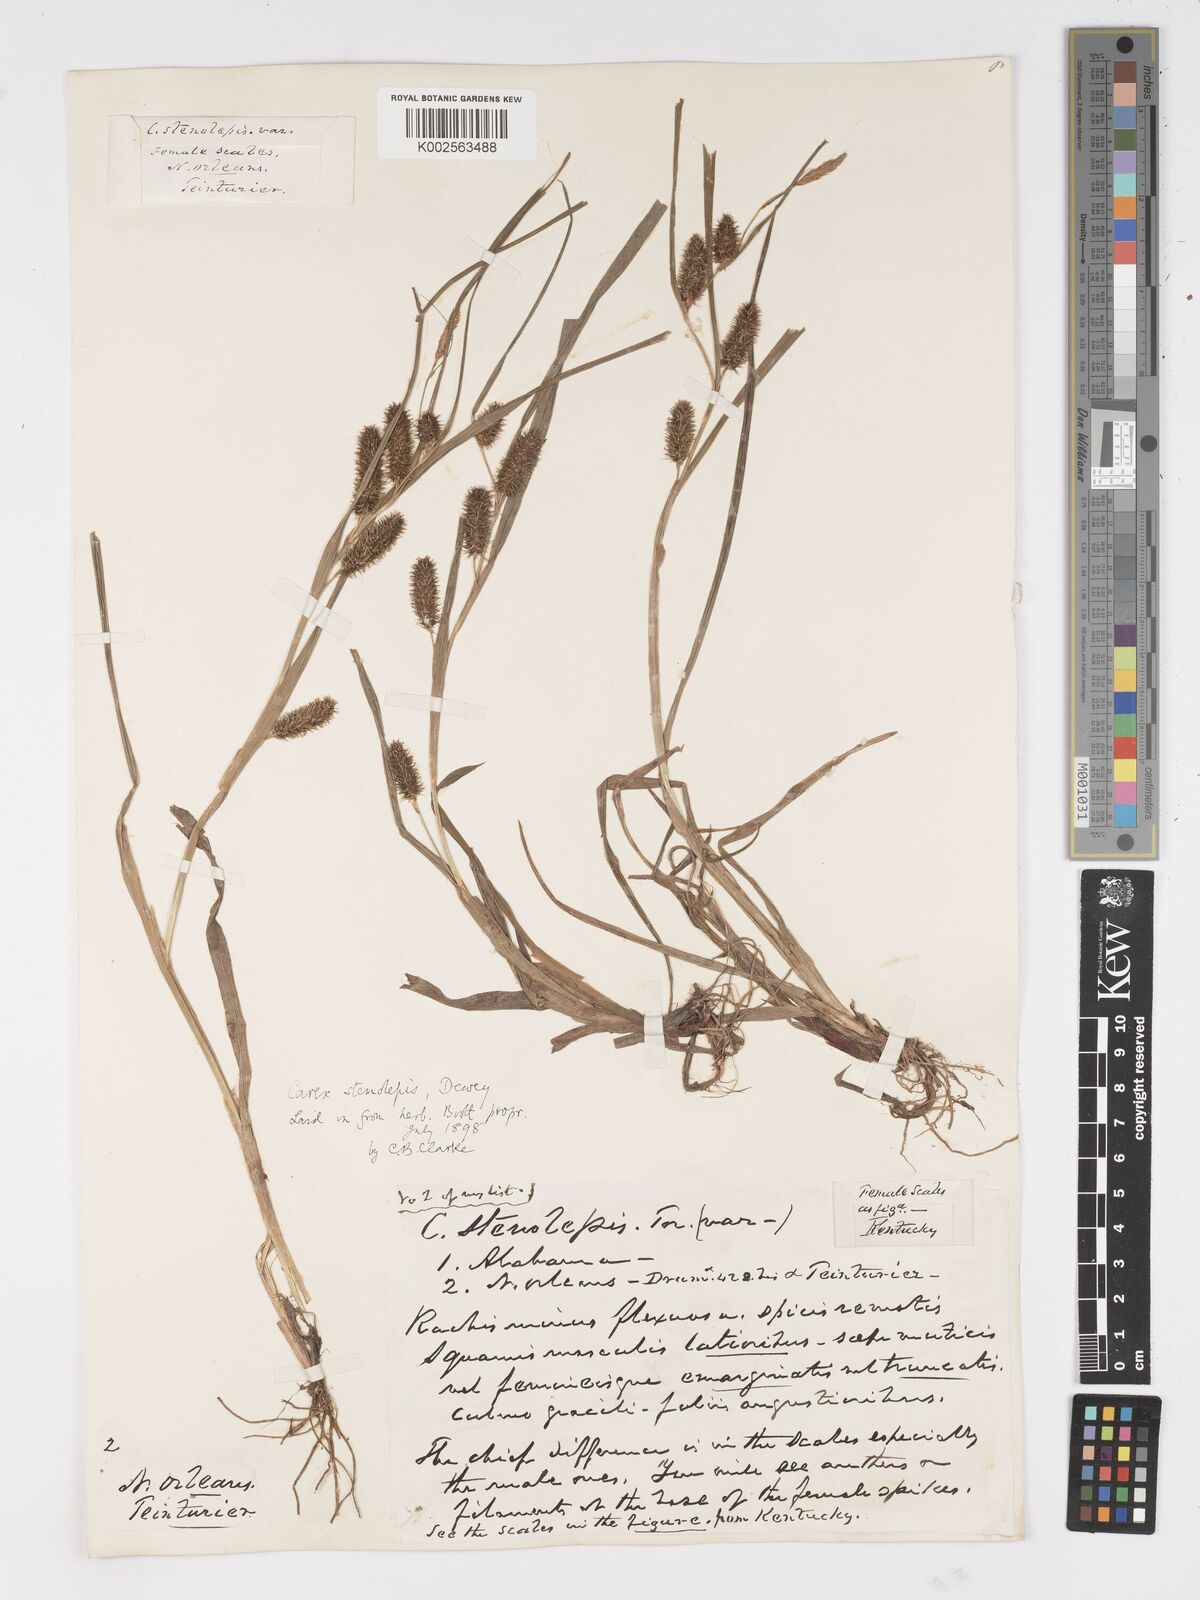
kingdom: Plantae
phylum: Tracheophyta
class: Liliopsida
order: Poales
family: Cyperaceae
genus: Carex
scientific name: Carex frankii
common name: Frank's sedge
